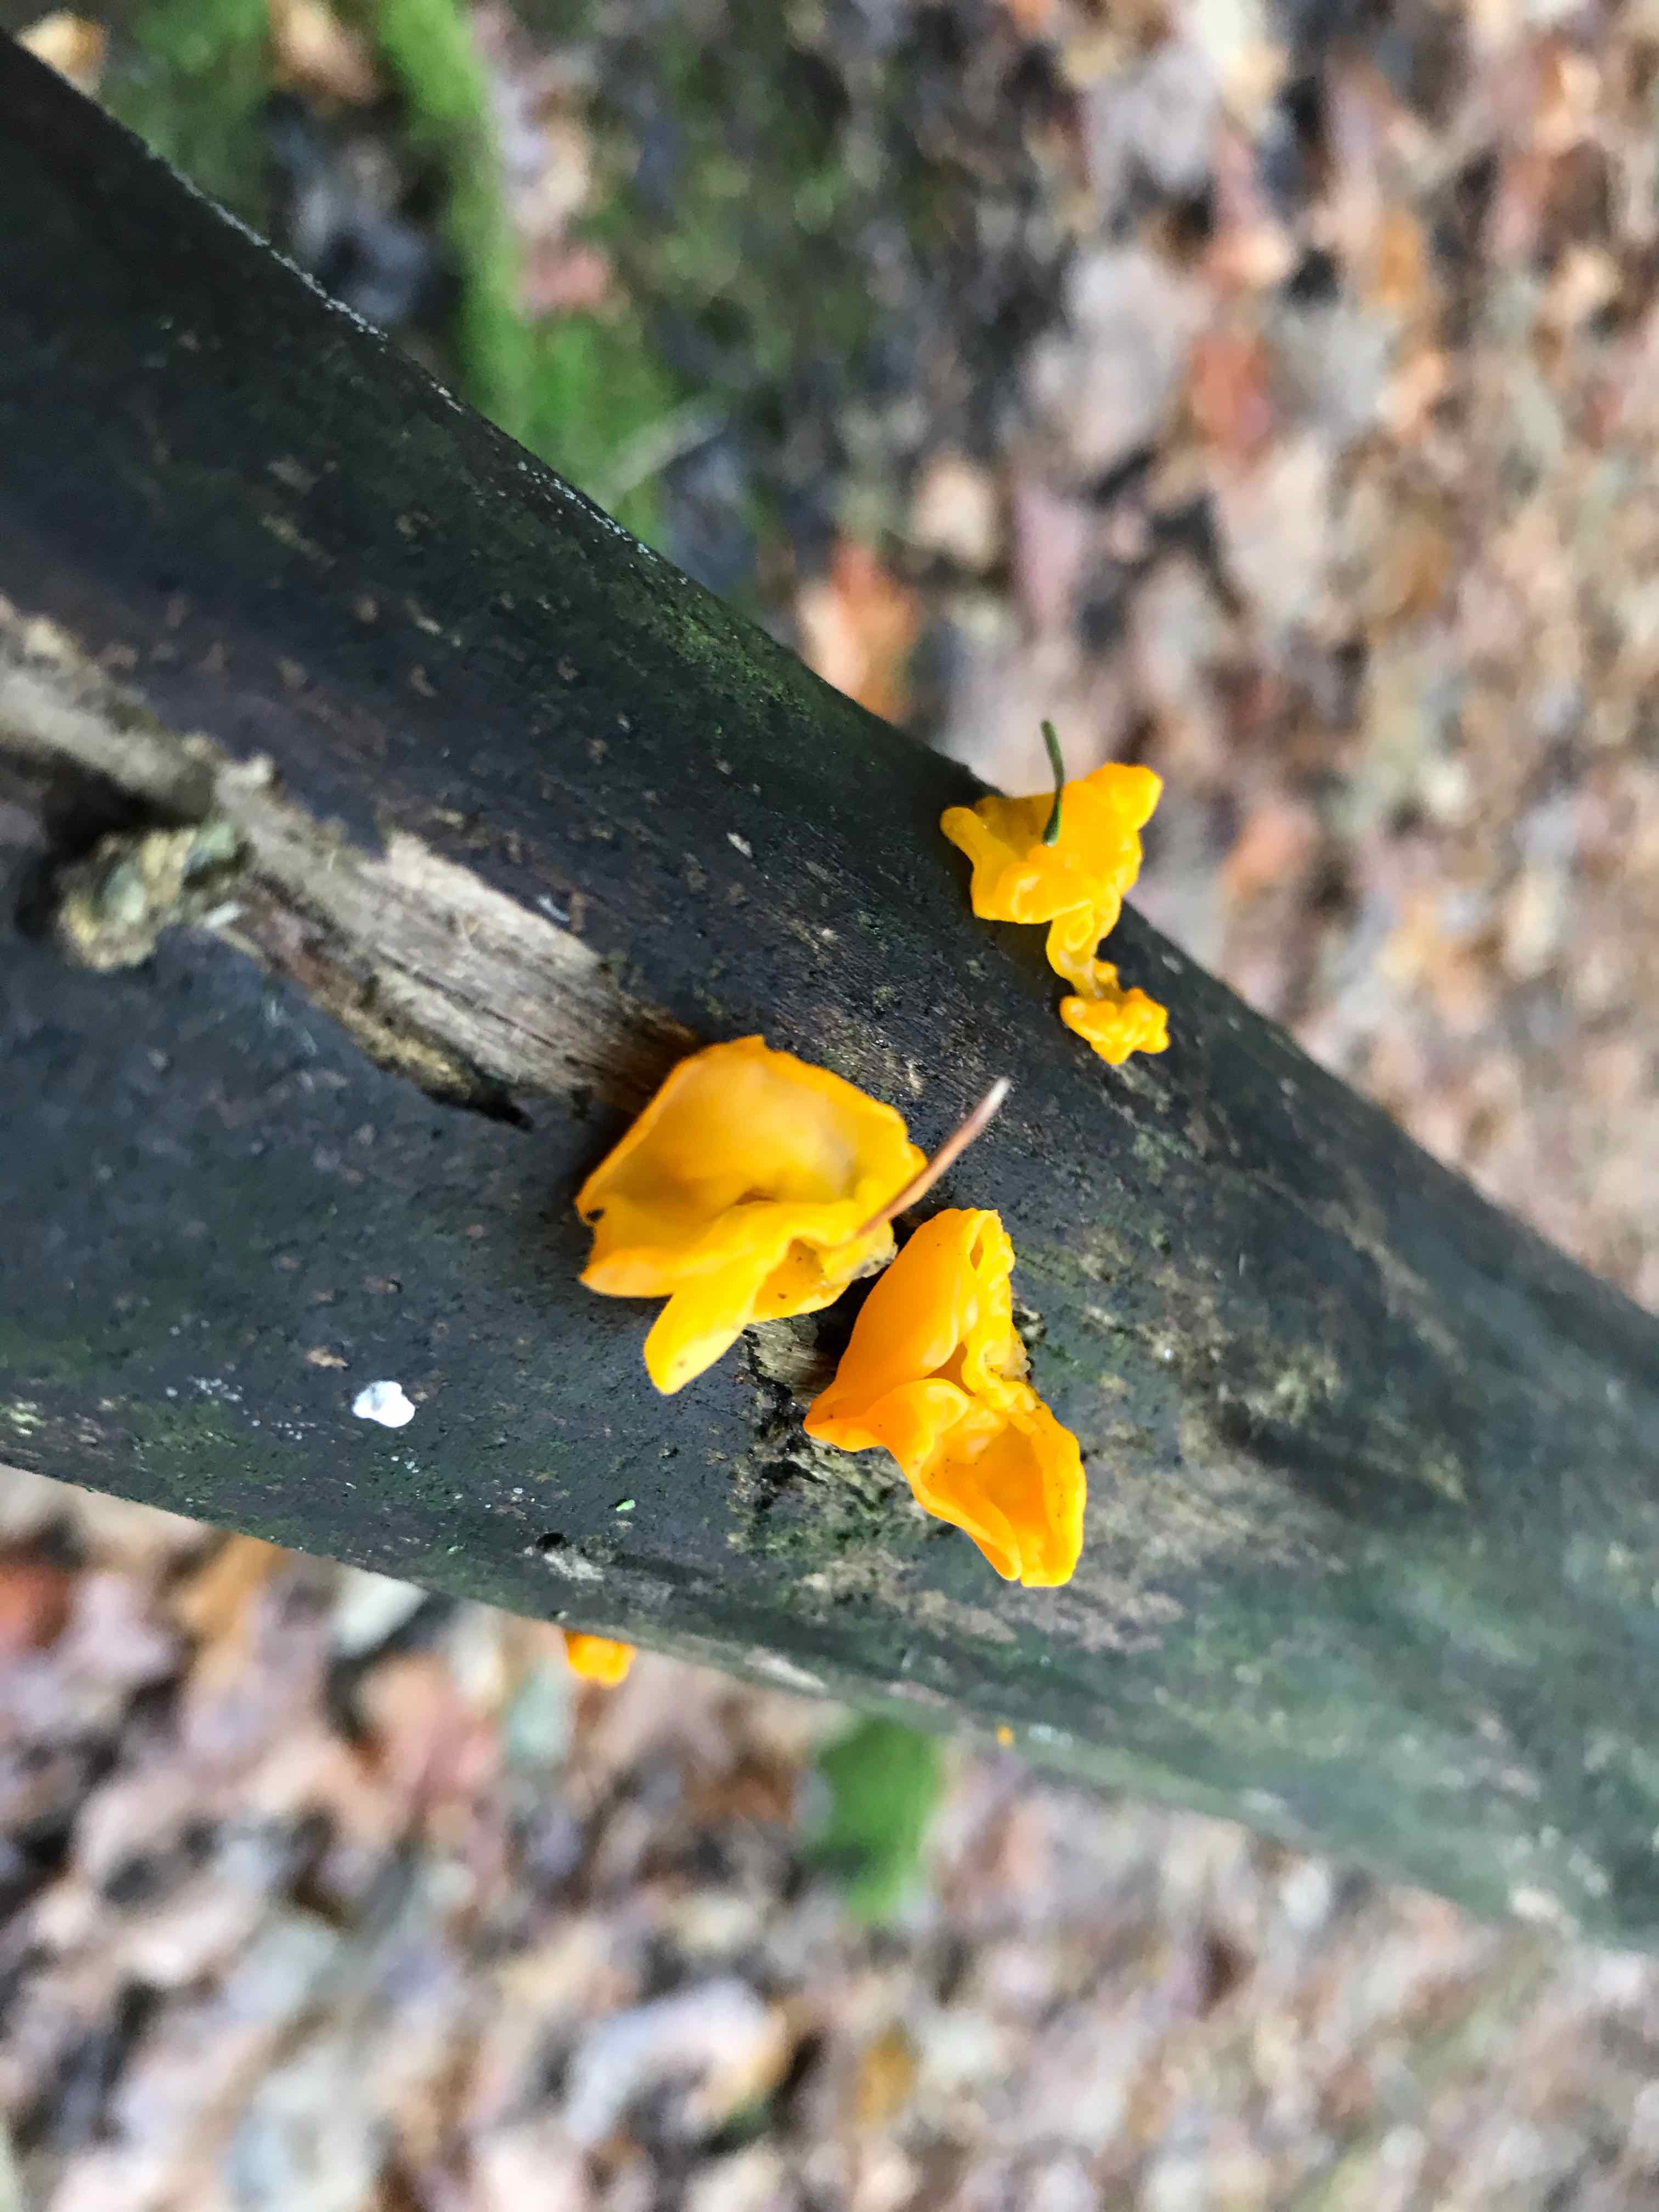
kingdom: Fungi
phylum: Basidiomycota
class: Tremellomycetes
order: Tremellales
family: Tremellaceae
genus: Tremella
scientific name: Tremella mesenterica
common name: gul bævresvamp
